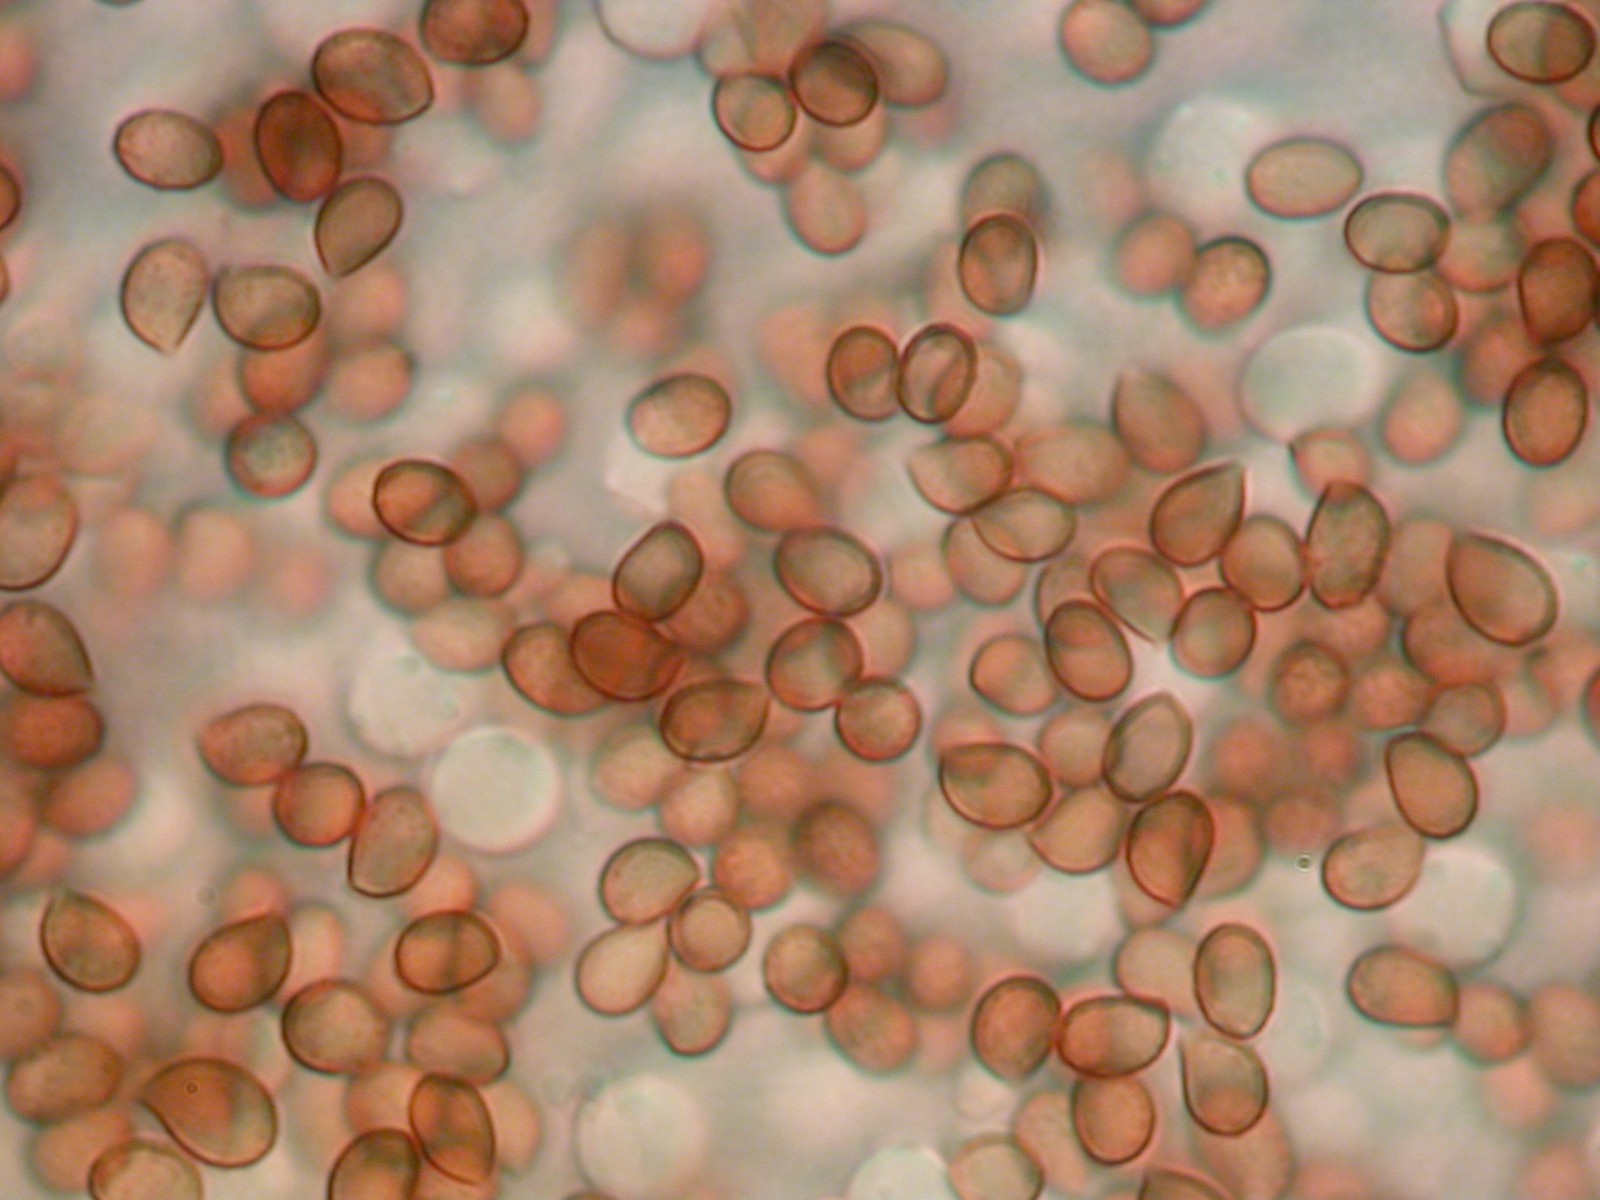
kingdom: Fungi
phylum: Basidiomycota
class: Agaricomycetes
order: Agaricales
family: Cortinariaceae
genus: Thaxterogaster
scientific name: Thaxterogaster pluvius
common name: hvidgul slørhat
